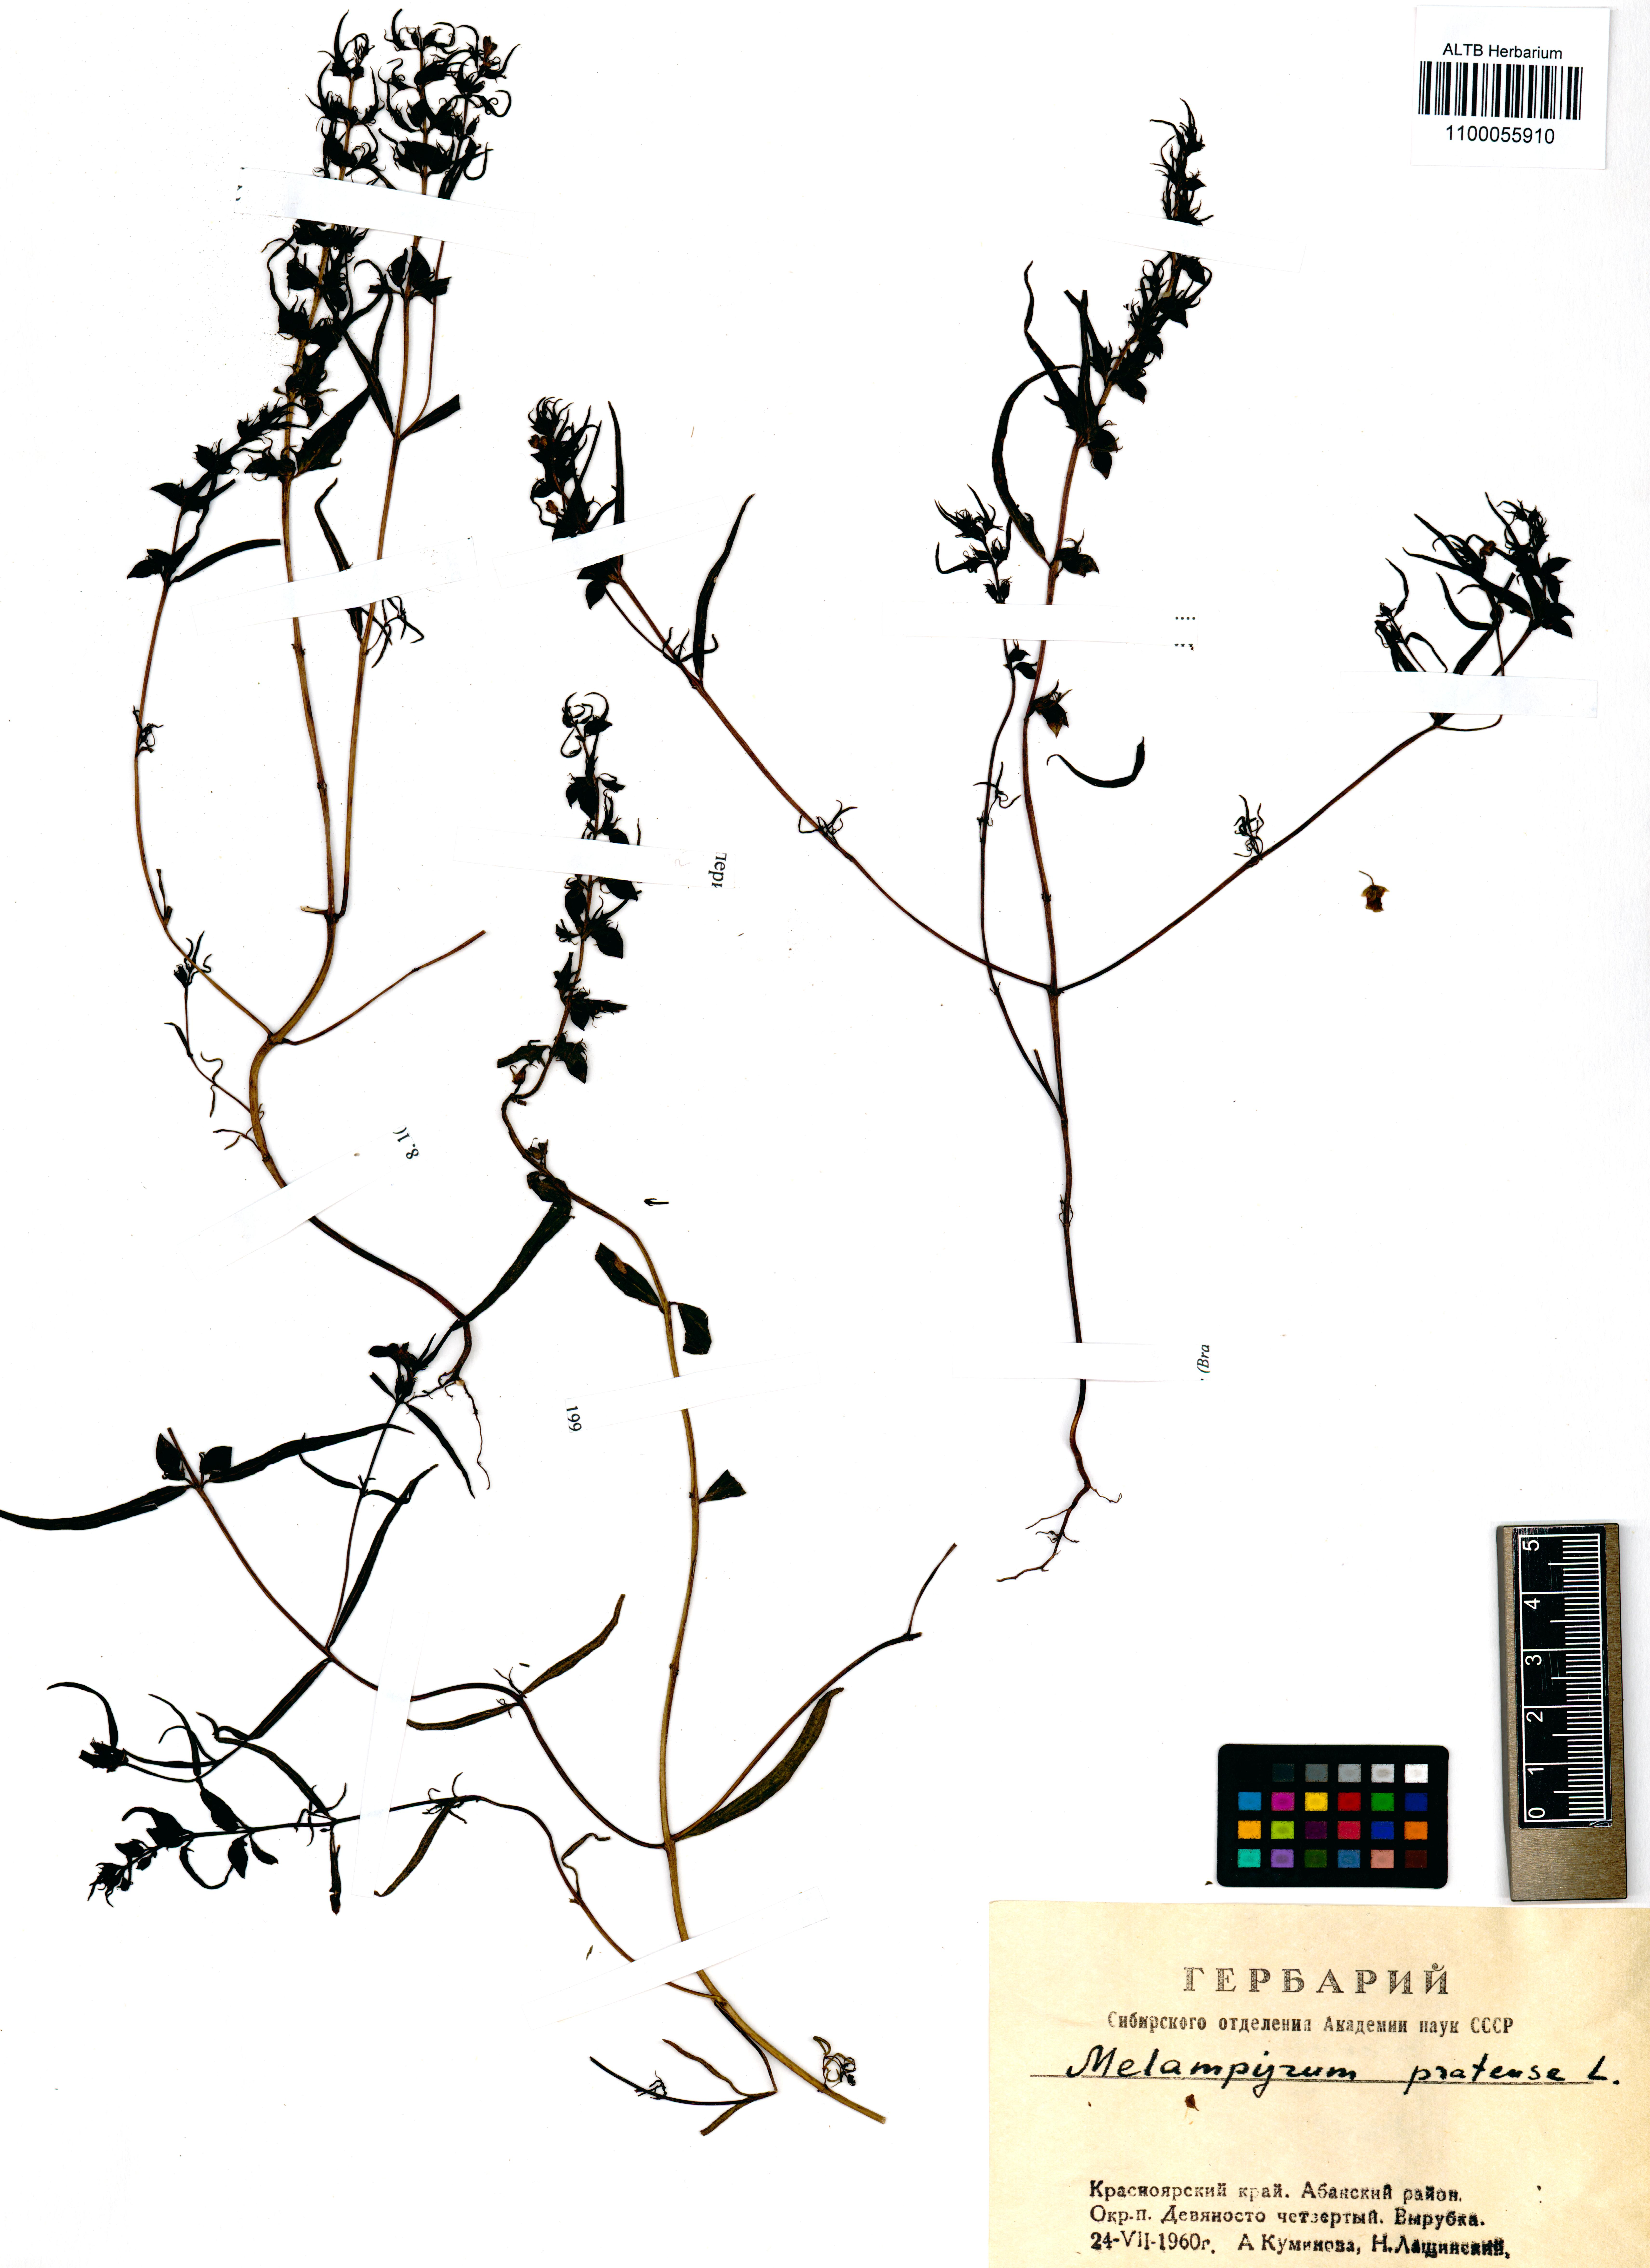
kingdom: Plantae
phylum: Tracheophyta
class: Magnoliopsida
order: Lamiales
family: Orobanchaceae
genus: Melampyrum
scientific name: Melampyrum pratense
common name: Common cow-wheat
